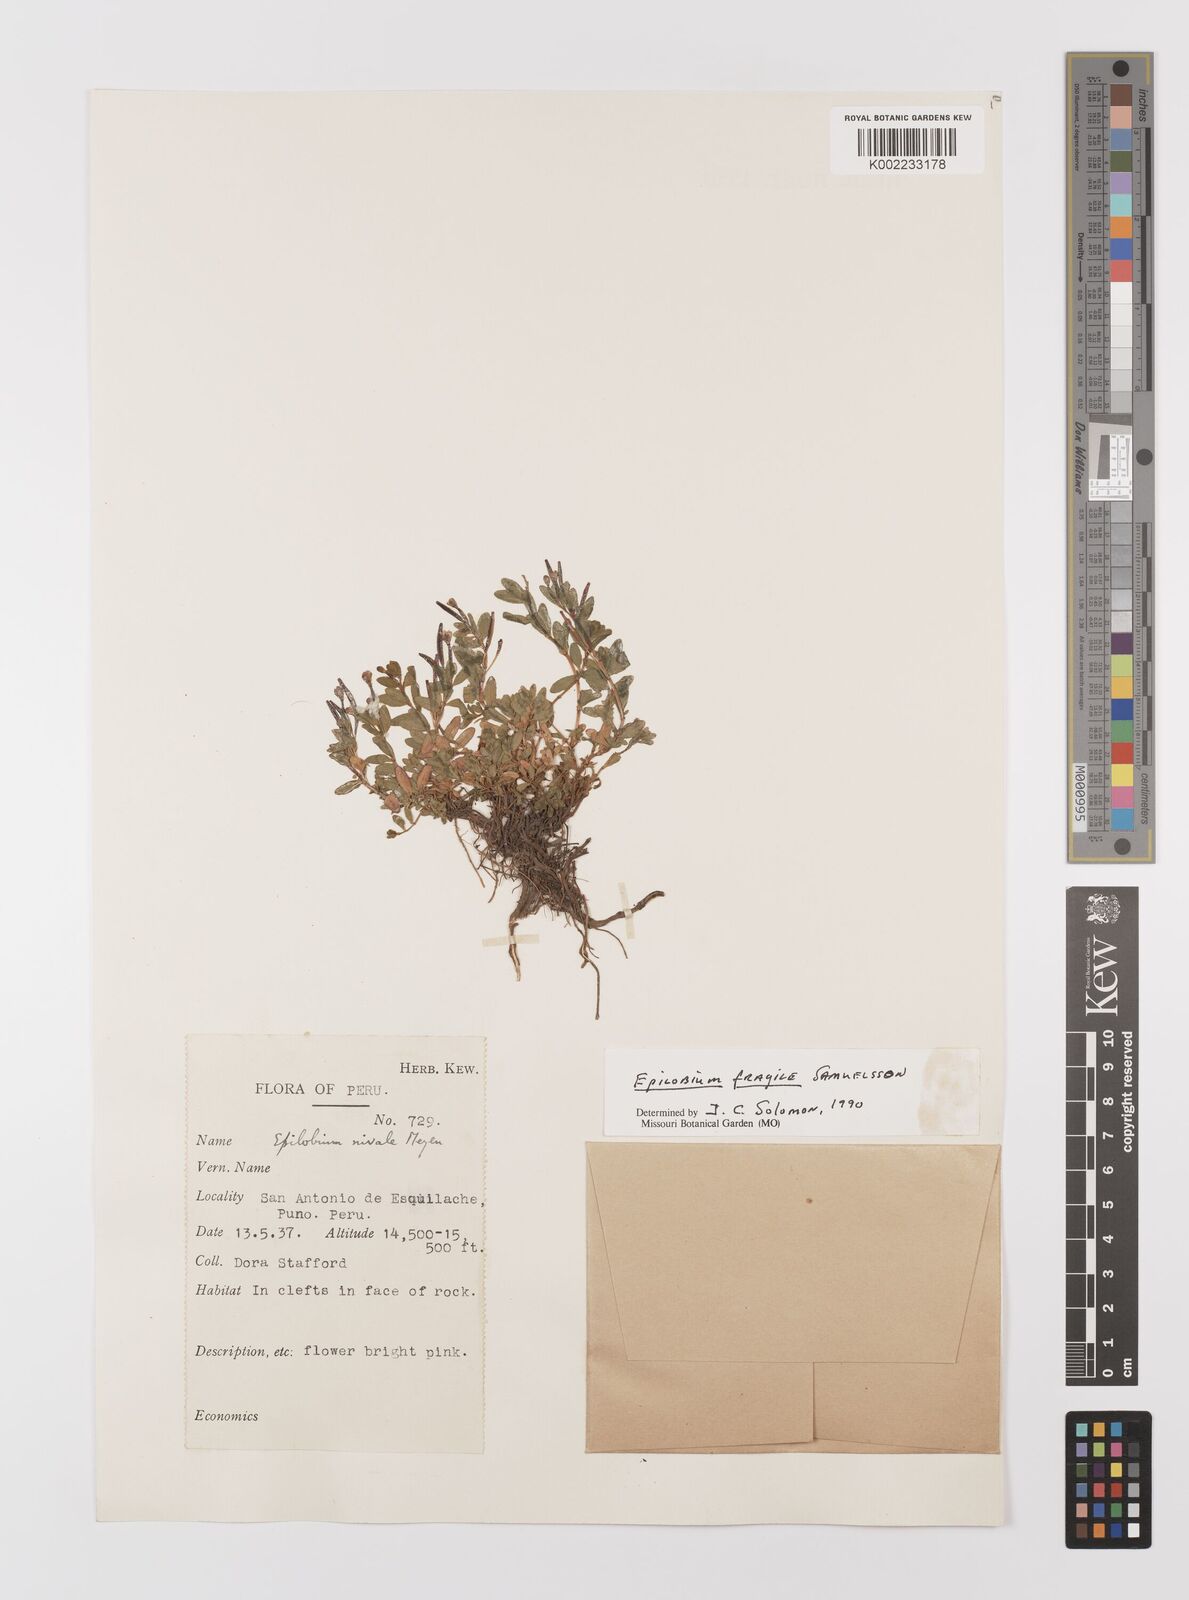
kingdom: Plantae
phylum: Tracheophyta
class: Magnoliopsida
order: Myrtales
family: Onagraceae
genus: Epilobium
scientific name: Epilobium fragile
